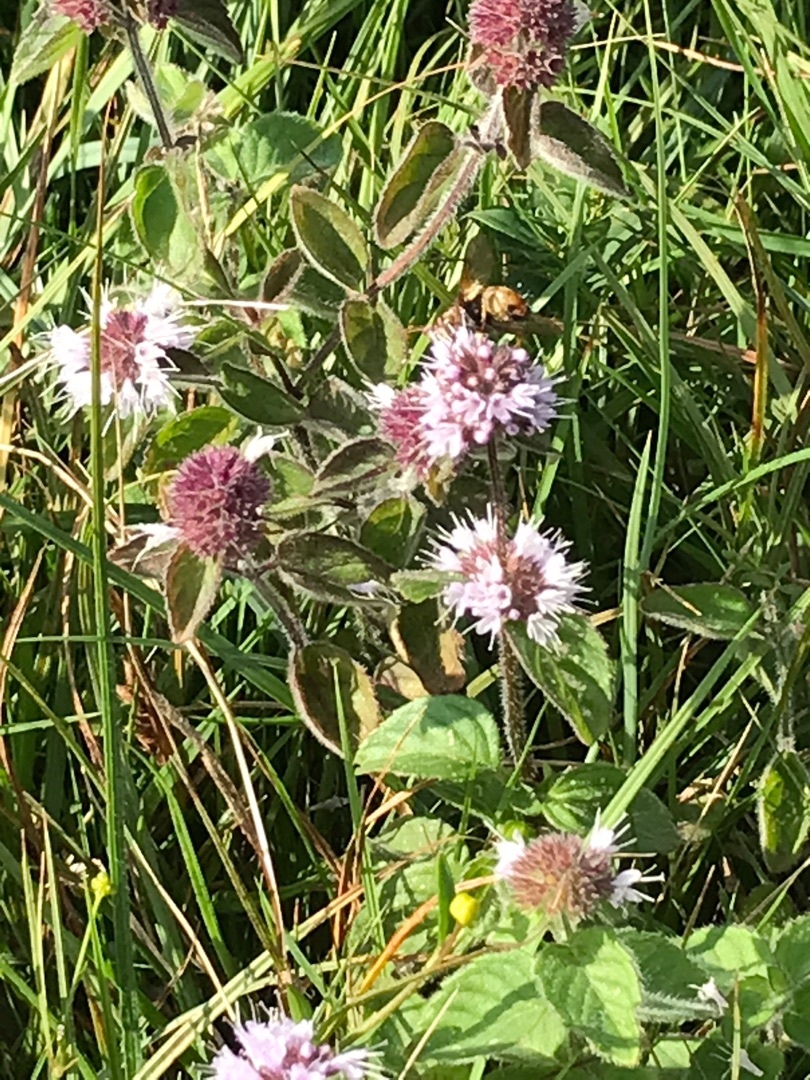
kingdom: Plantae
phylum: Tracheophyta
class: Magnoliopsida
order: Lamiales
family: Lamiaceae
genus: Mentha
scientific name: Mentha aquatica
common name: Vand-mynte
